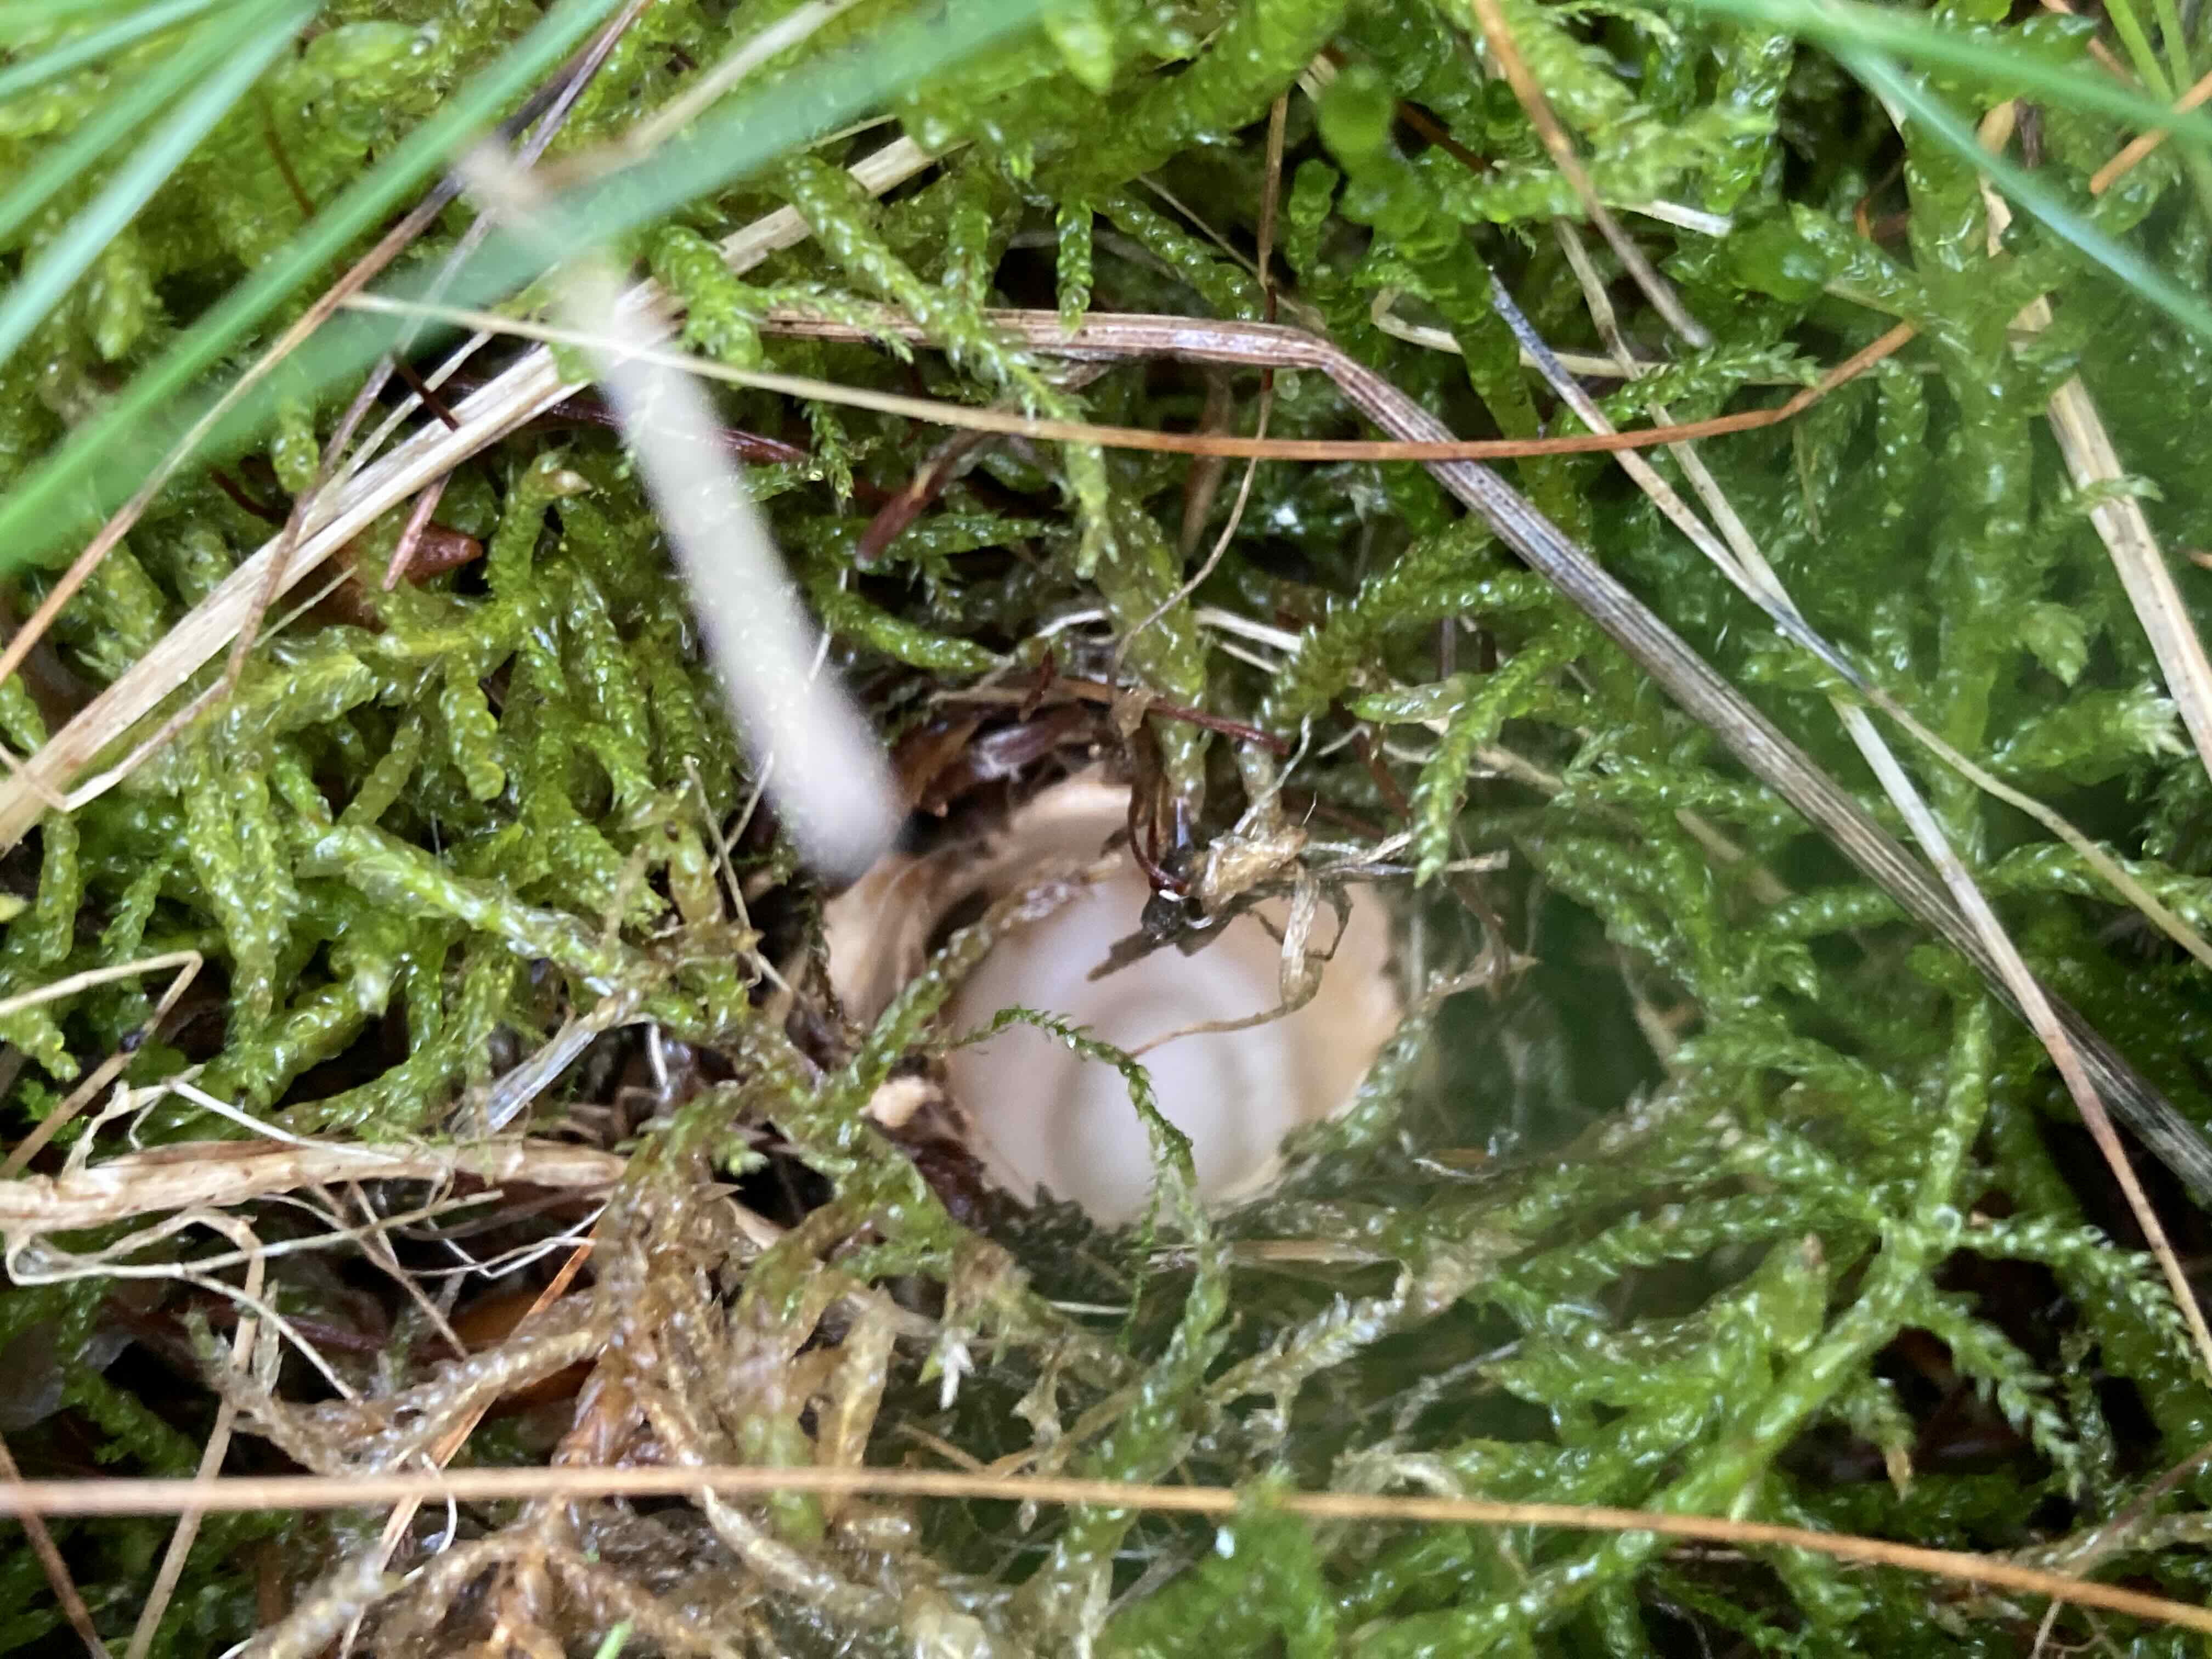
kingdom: Fungi
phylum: Basidiomycota
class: Agaricomycetes
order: Agaricales
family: Amanitaceae
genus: Amanita
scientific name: Amanita fulva
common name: brun kam-fluesvamp
